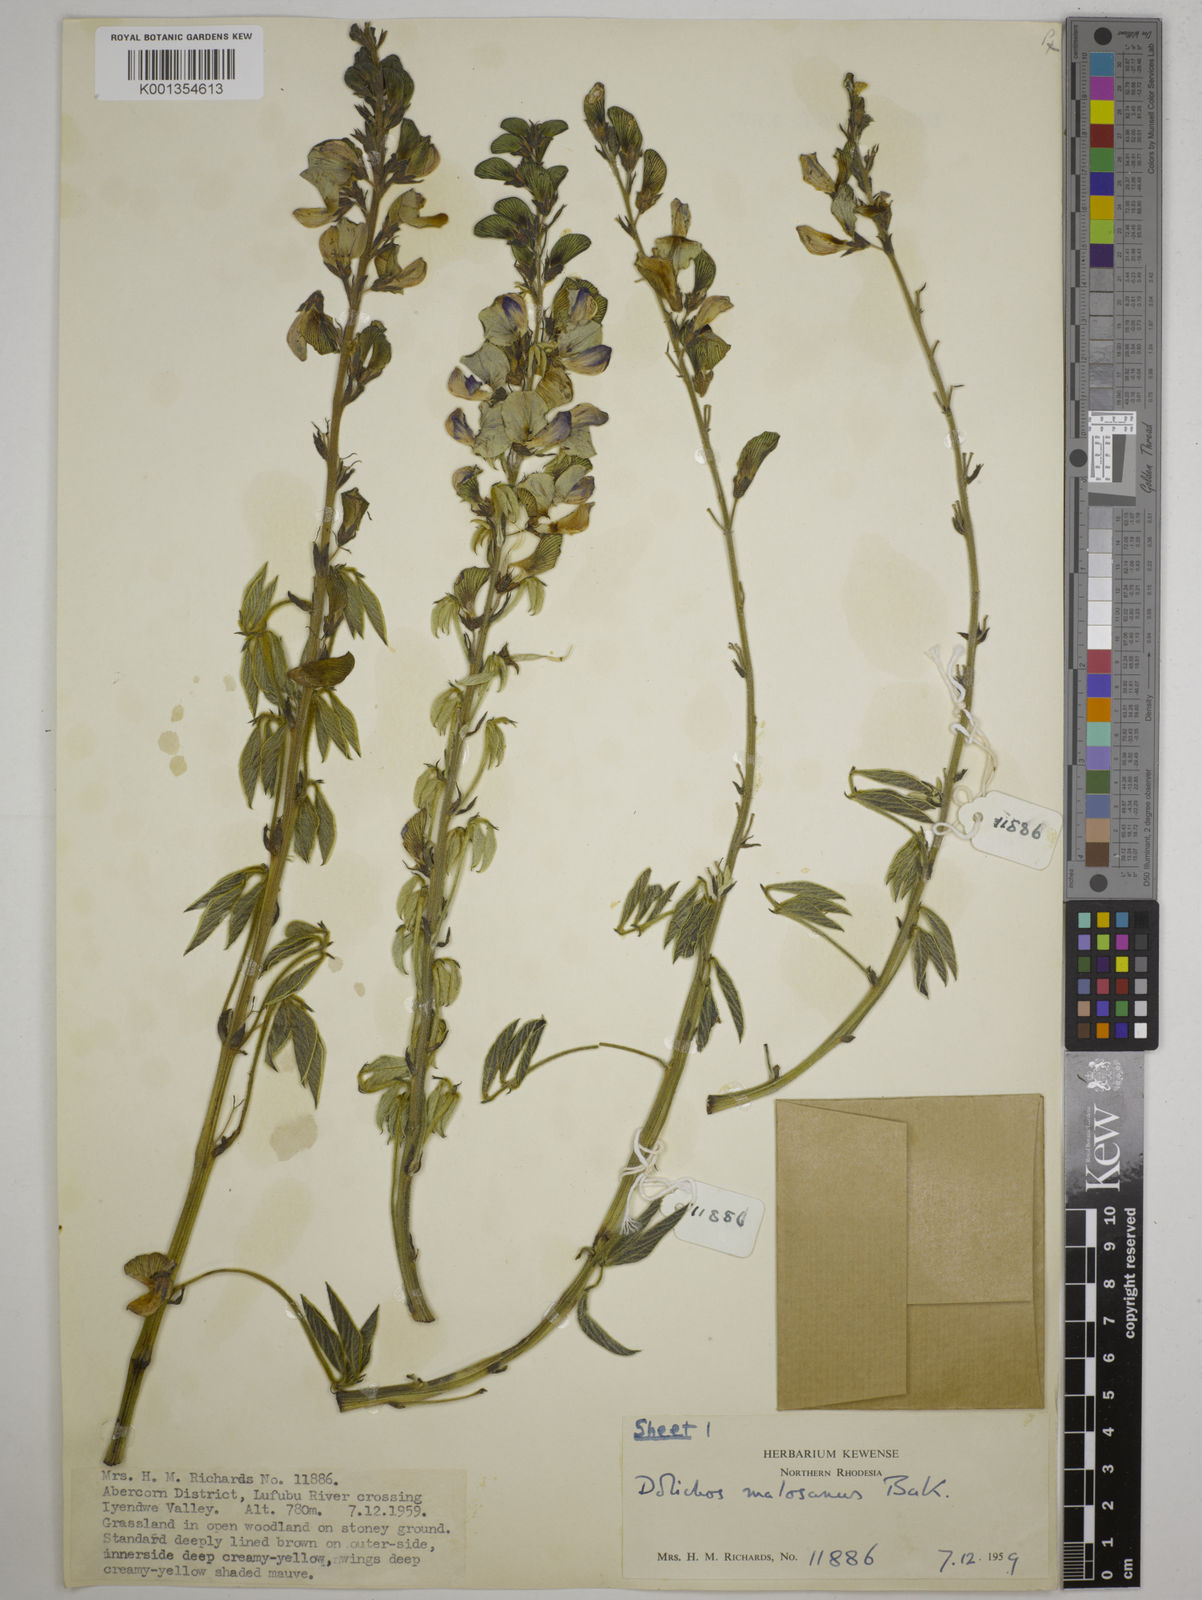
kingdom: Plantae
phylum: Tracheophyta
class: Magnoliopsida
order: Fabales
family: Fabaceae
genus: Dolichos
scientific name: Dolichos kilimandscharicus
